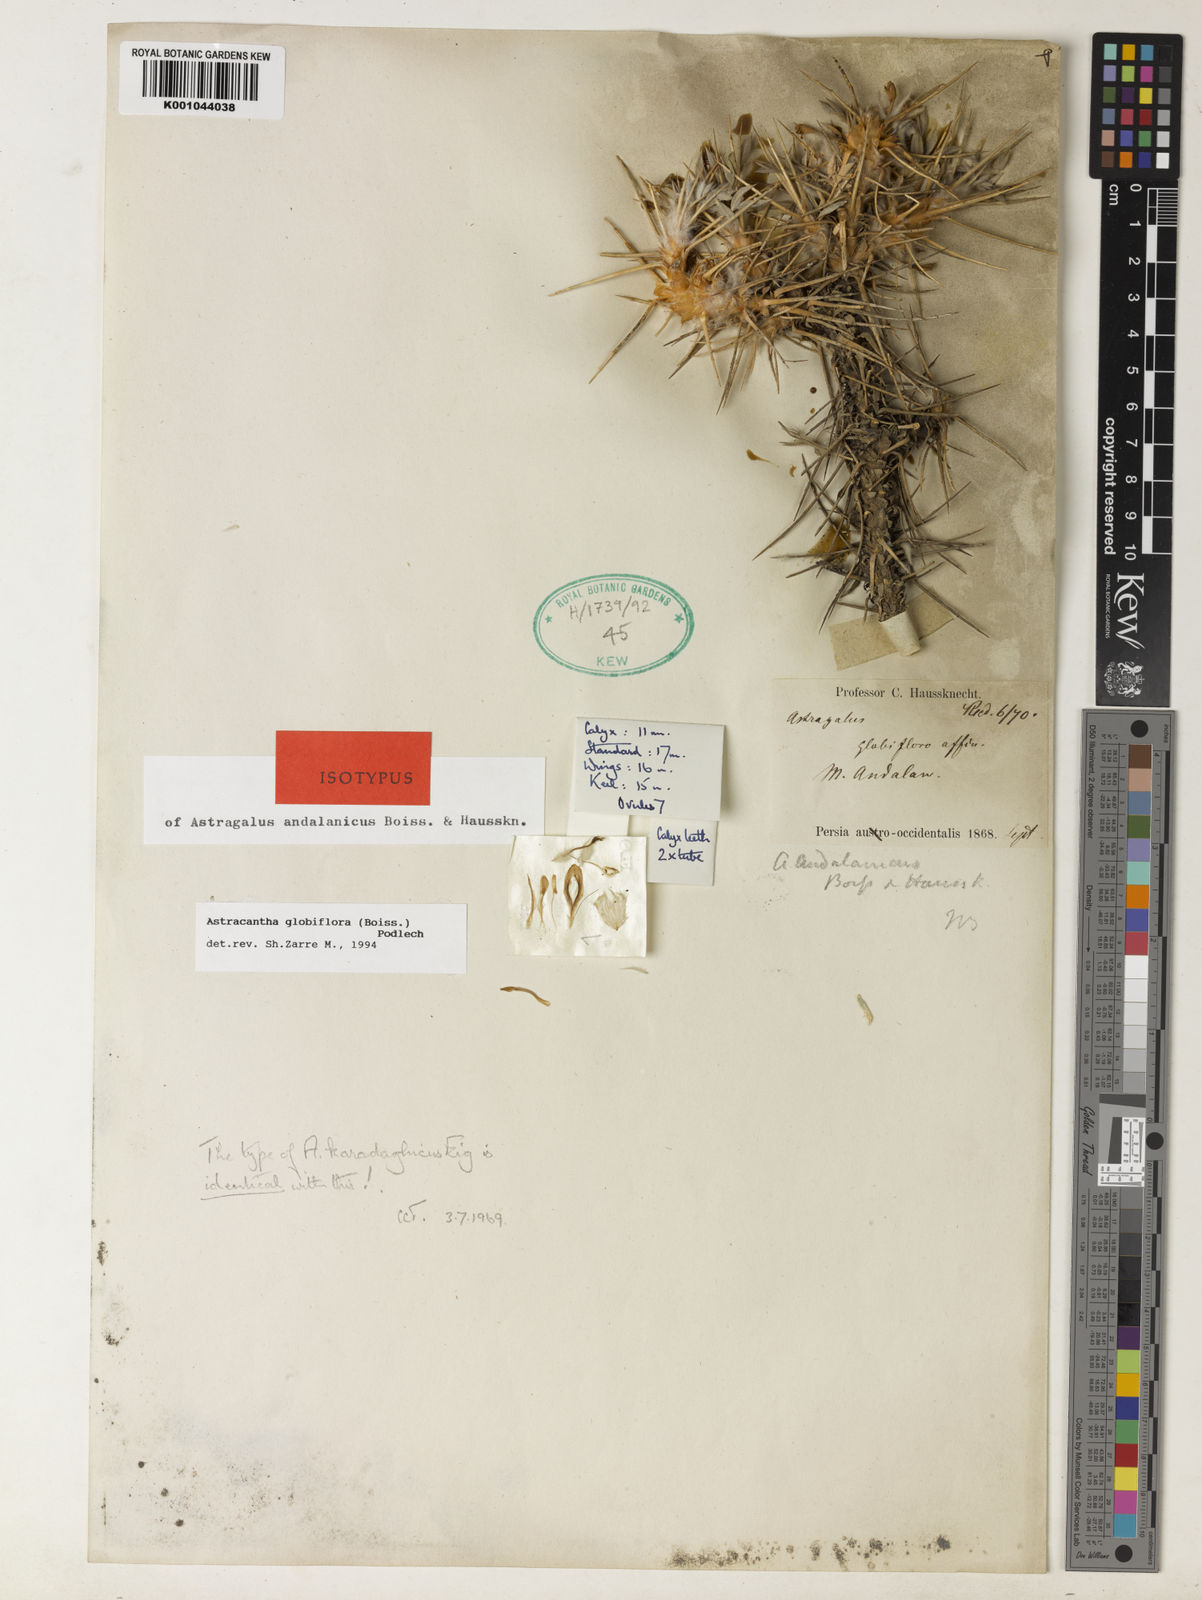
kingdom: Plantae
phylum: Tracheophyta
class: Magnoliopsida
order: Fabales
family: Fabaceae
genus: Astragalus
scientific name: Astragalus globiflorus
